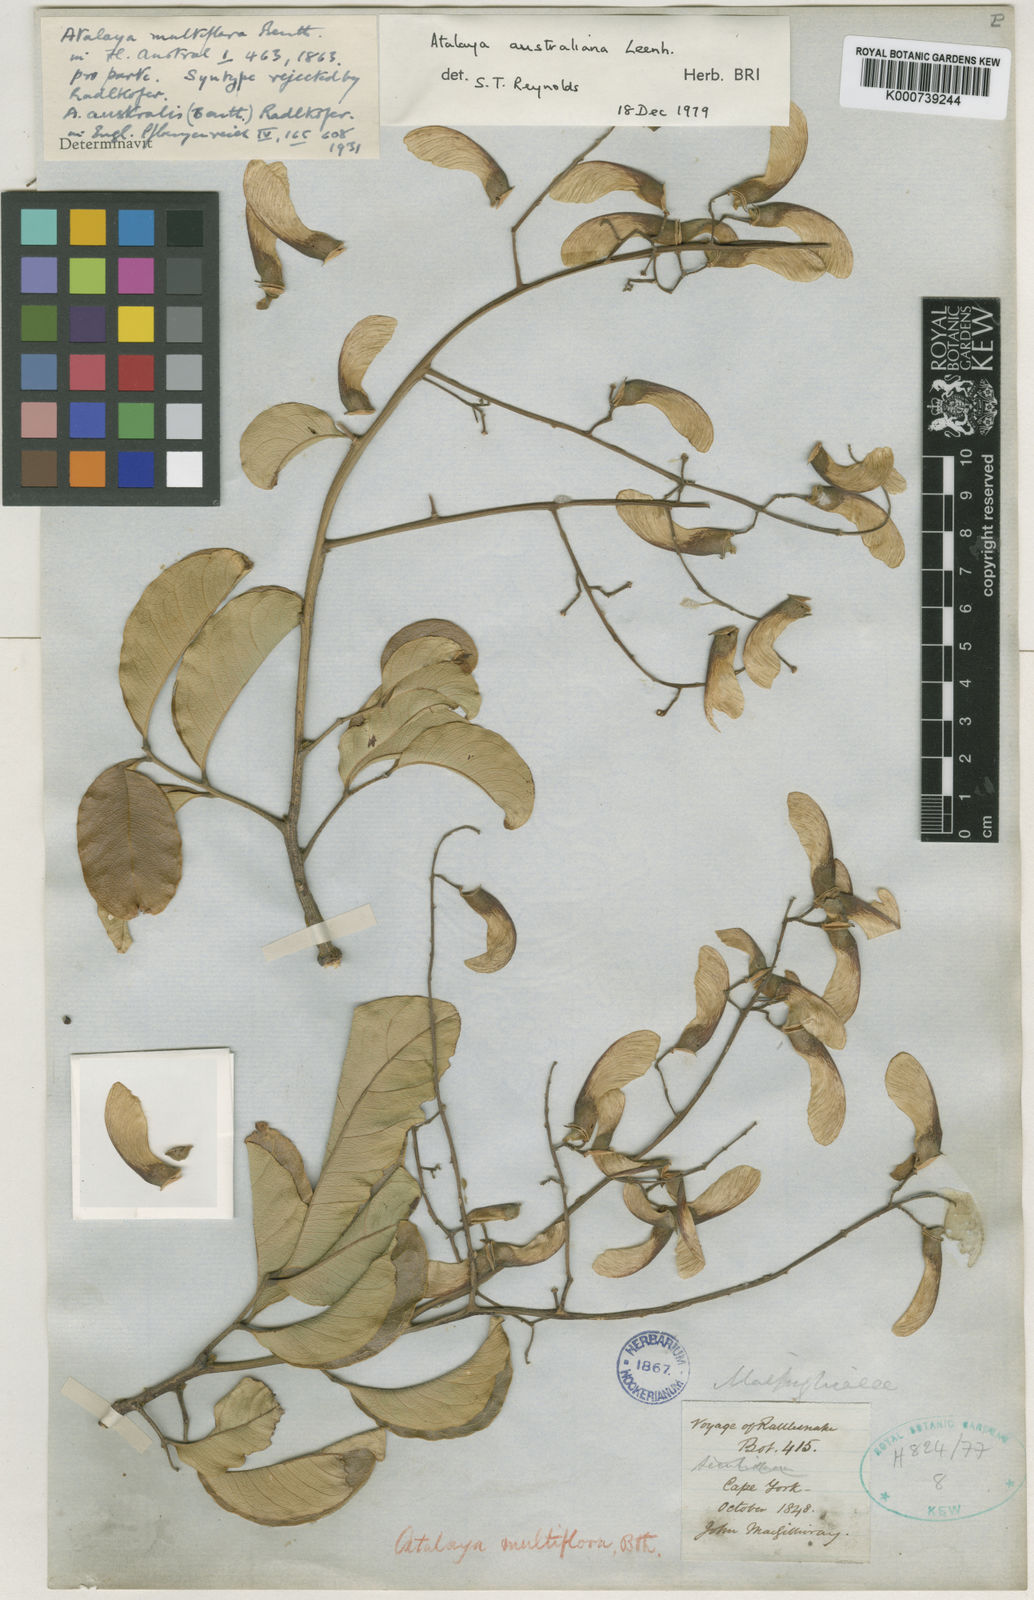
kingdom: Plantae
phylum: Tracheophyta
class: Magnoliopsida
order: Sapindales
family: Sapindaceae
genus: Atalaya
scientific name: Atalaya australiana
